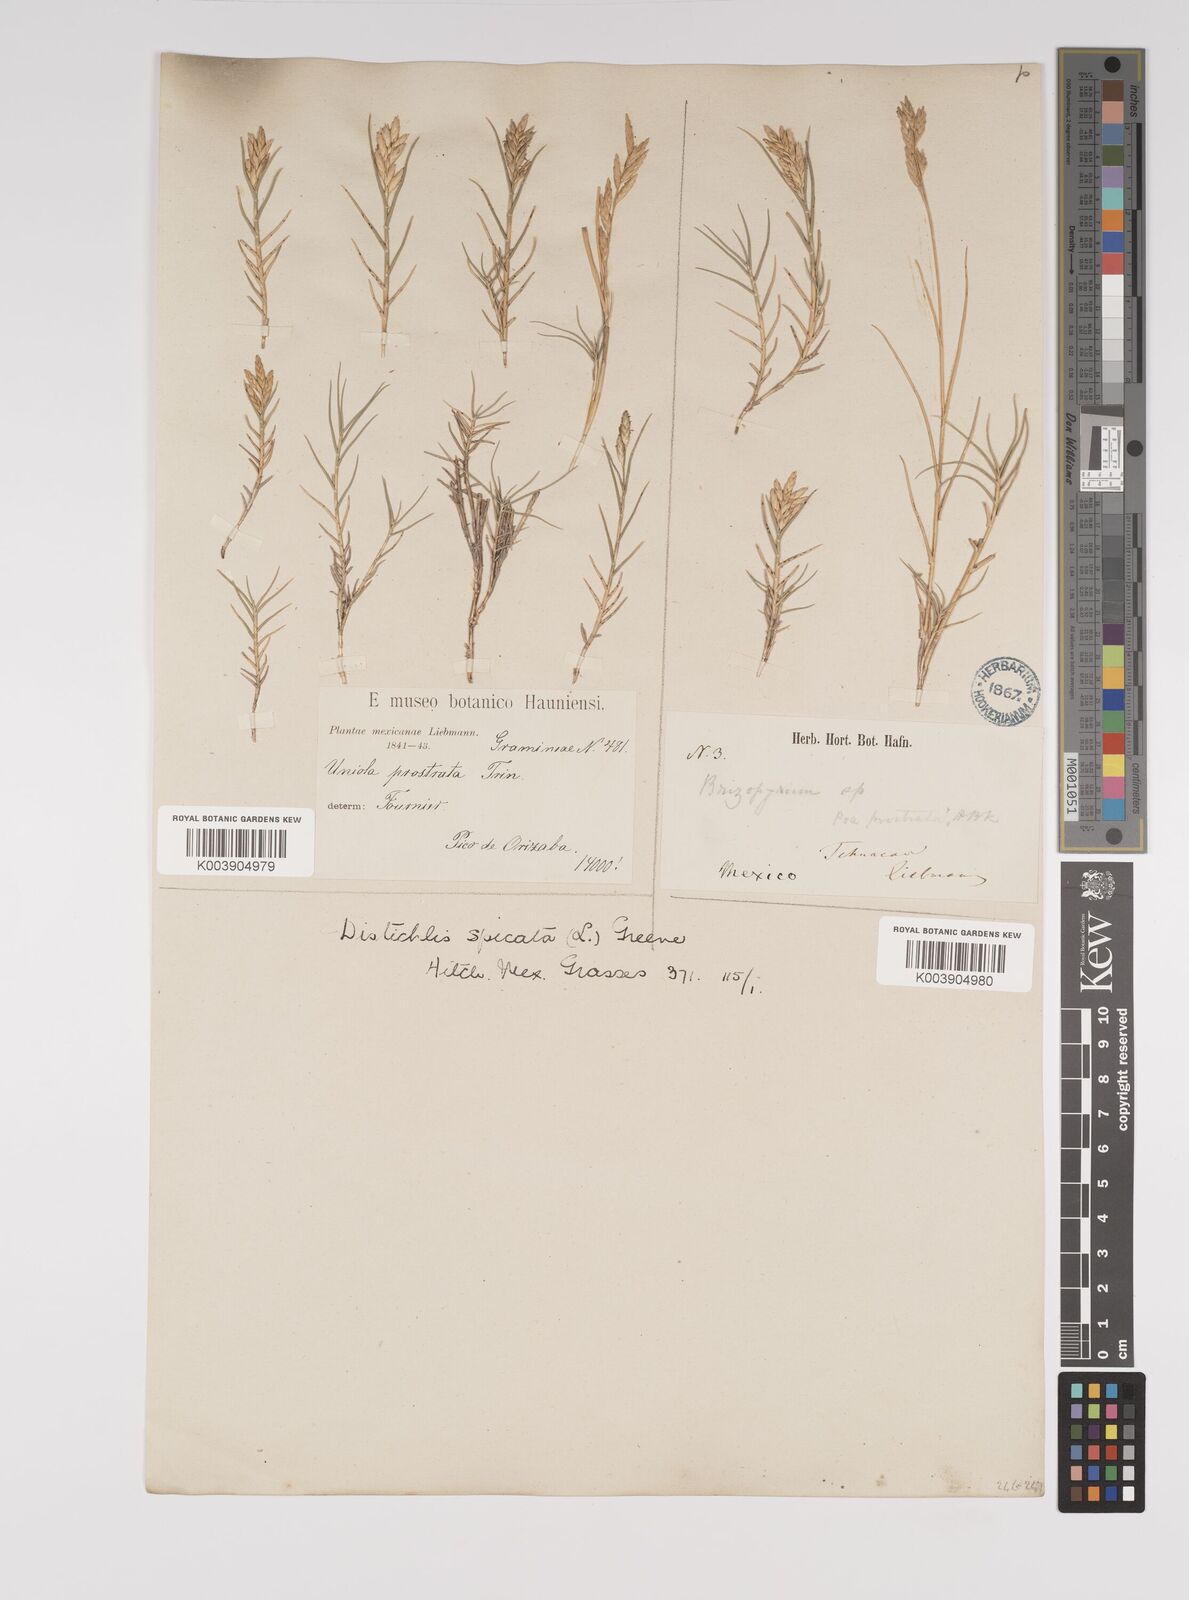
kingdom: Plantae
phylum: Tracheophyta
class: Liliopsida
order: Poales
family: Poaceae
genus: Distichlis
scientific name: Distichlis spicata
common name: Saltgrass
